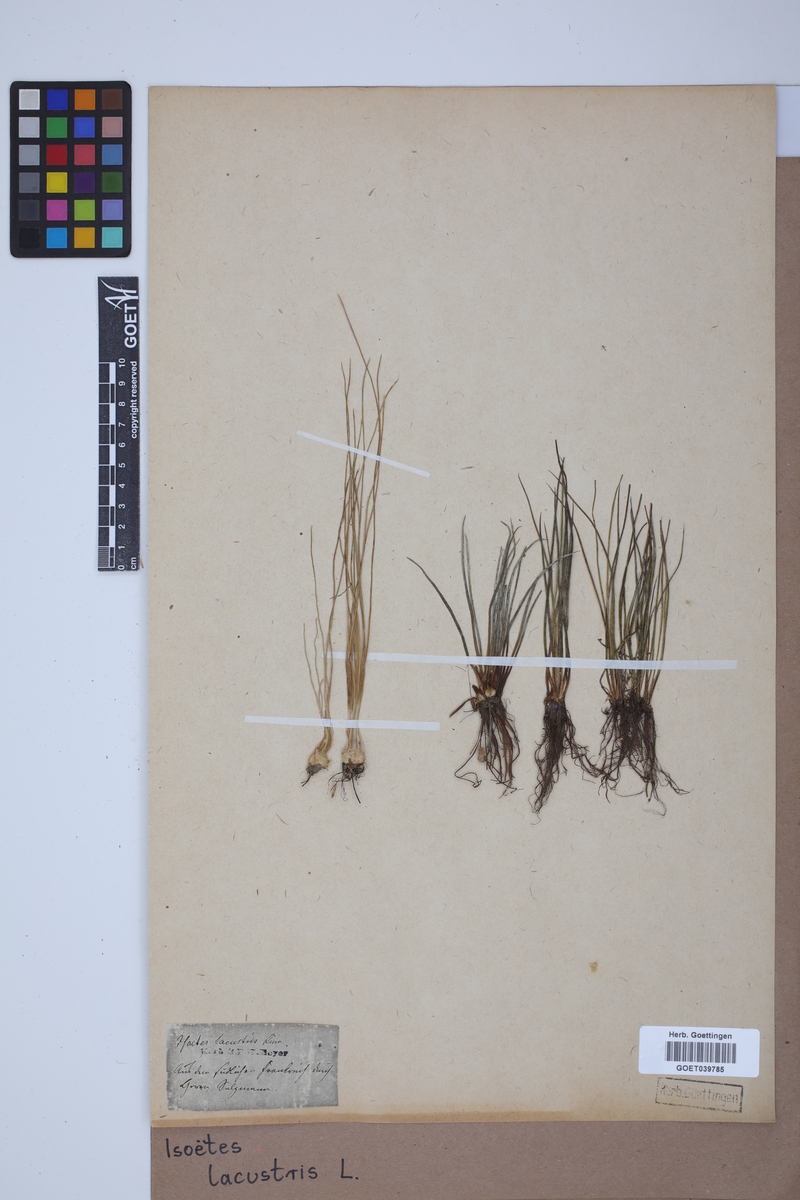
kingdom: Plantae
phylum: Tracheophyta
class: Lycopodiopsida
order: Isoetales
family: Isoetaceae
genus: Isoetes
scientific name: Isoetes lacustris
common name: Common quillwort
